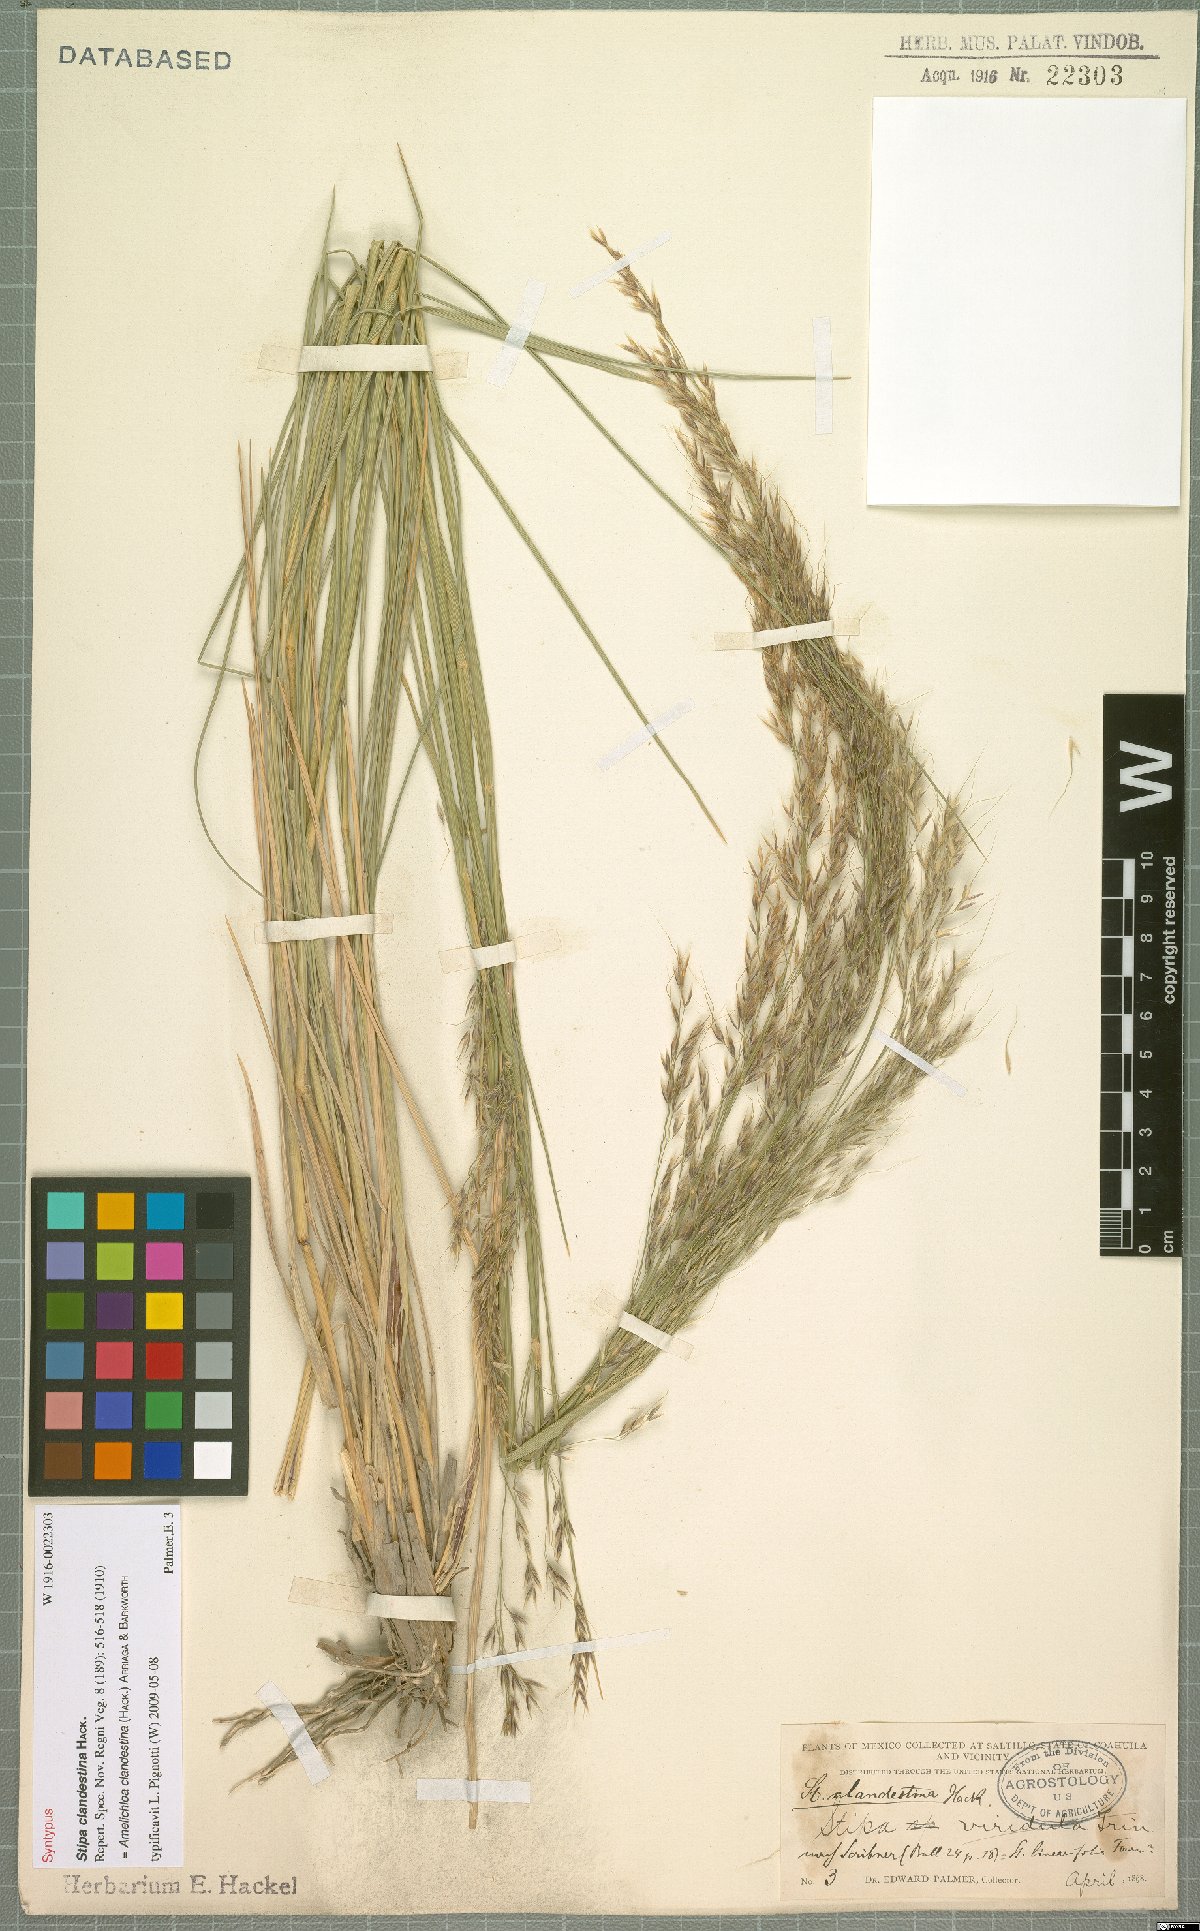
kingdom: Plantae
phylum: Tracheophyta
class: Liliopsida
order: Poales
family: Poaceae
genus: Amelichloa
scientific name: Amelichloa clandestina
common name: Mexican ricegrass
